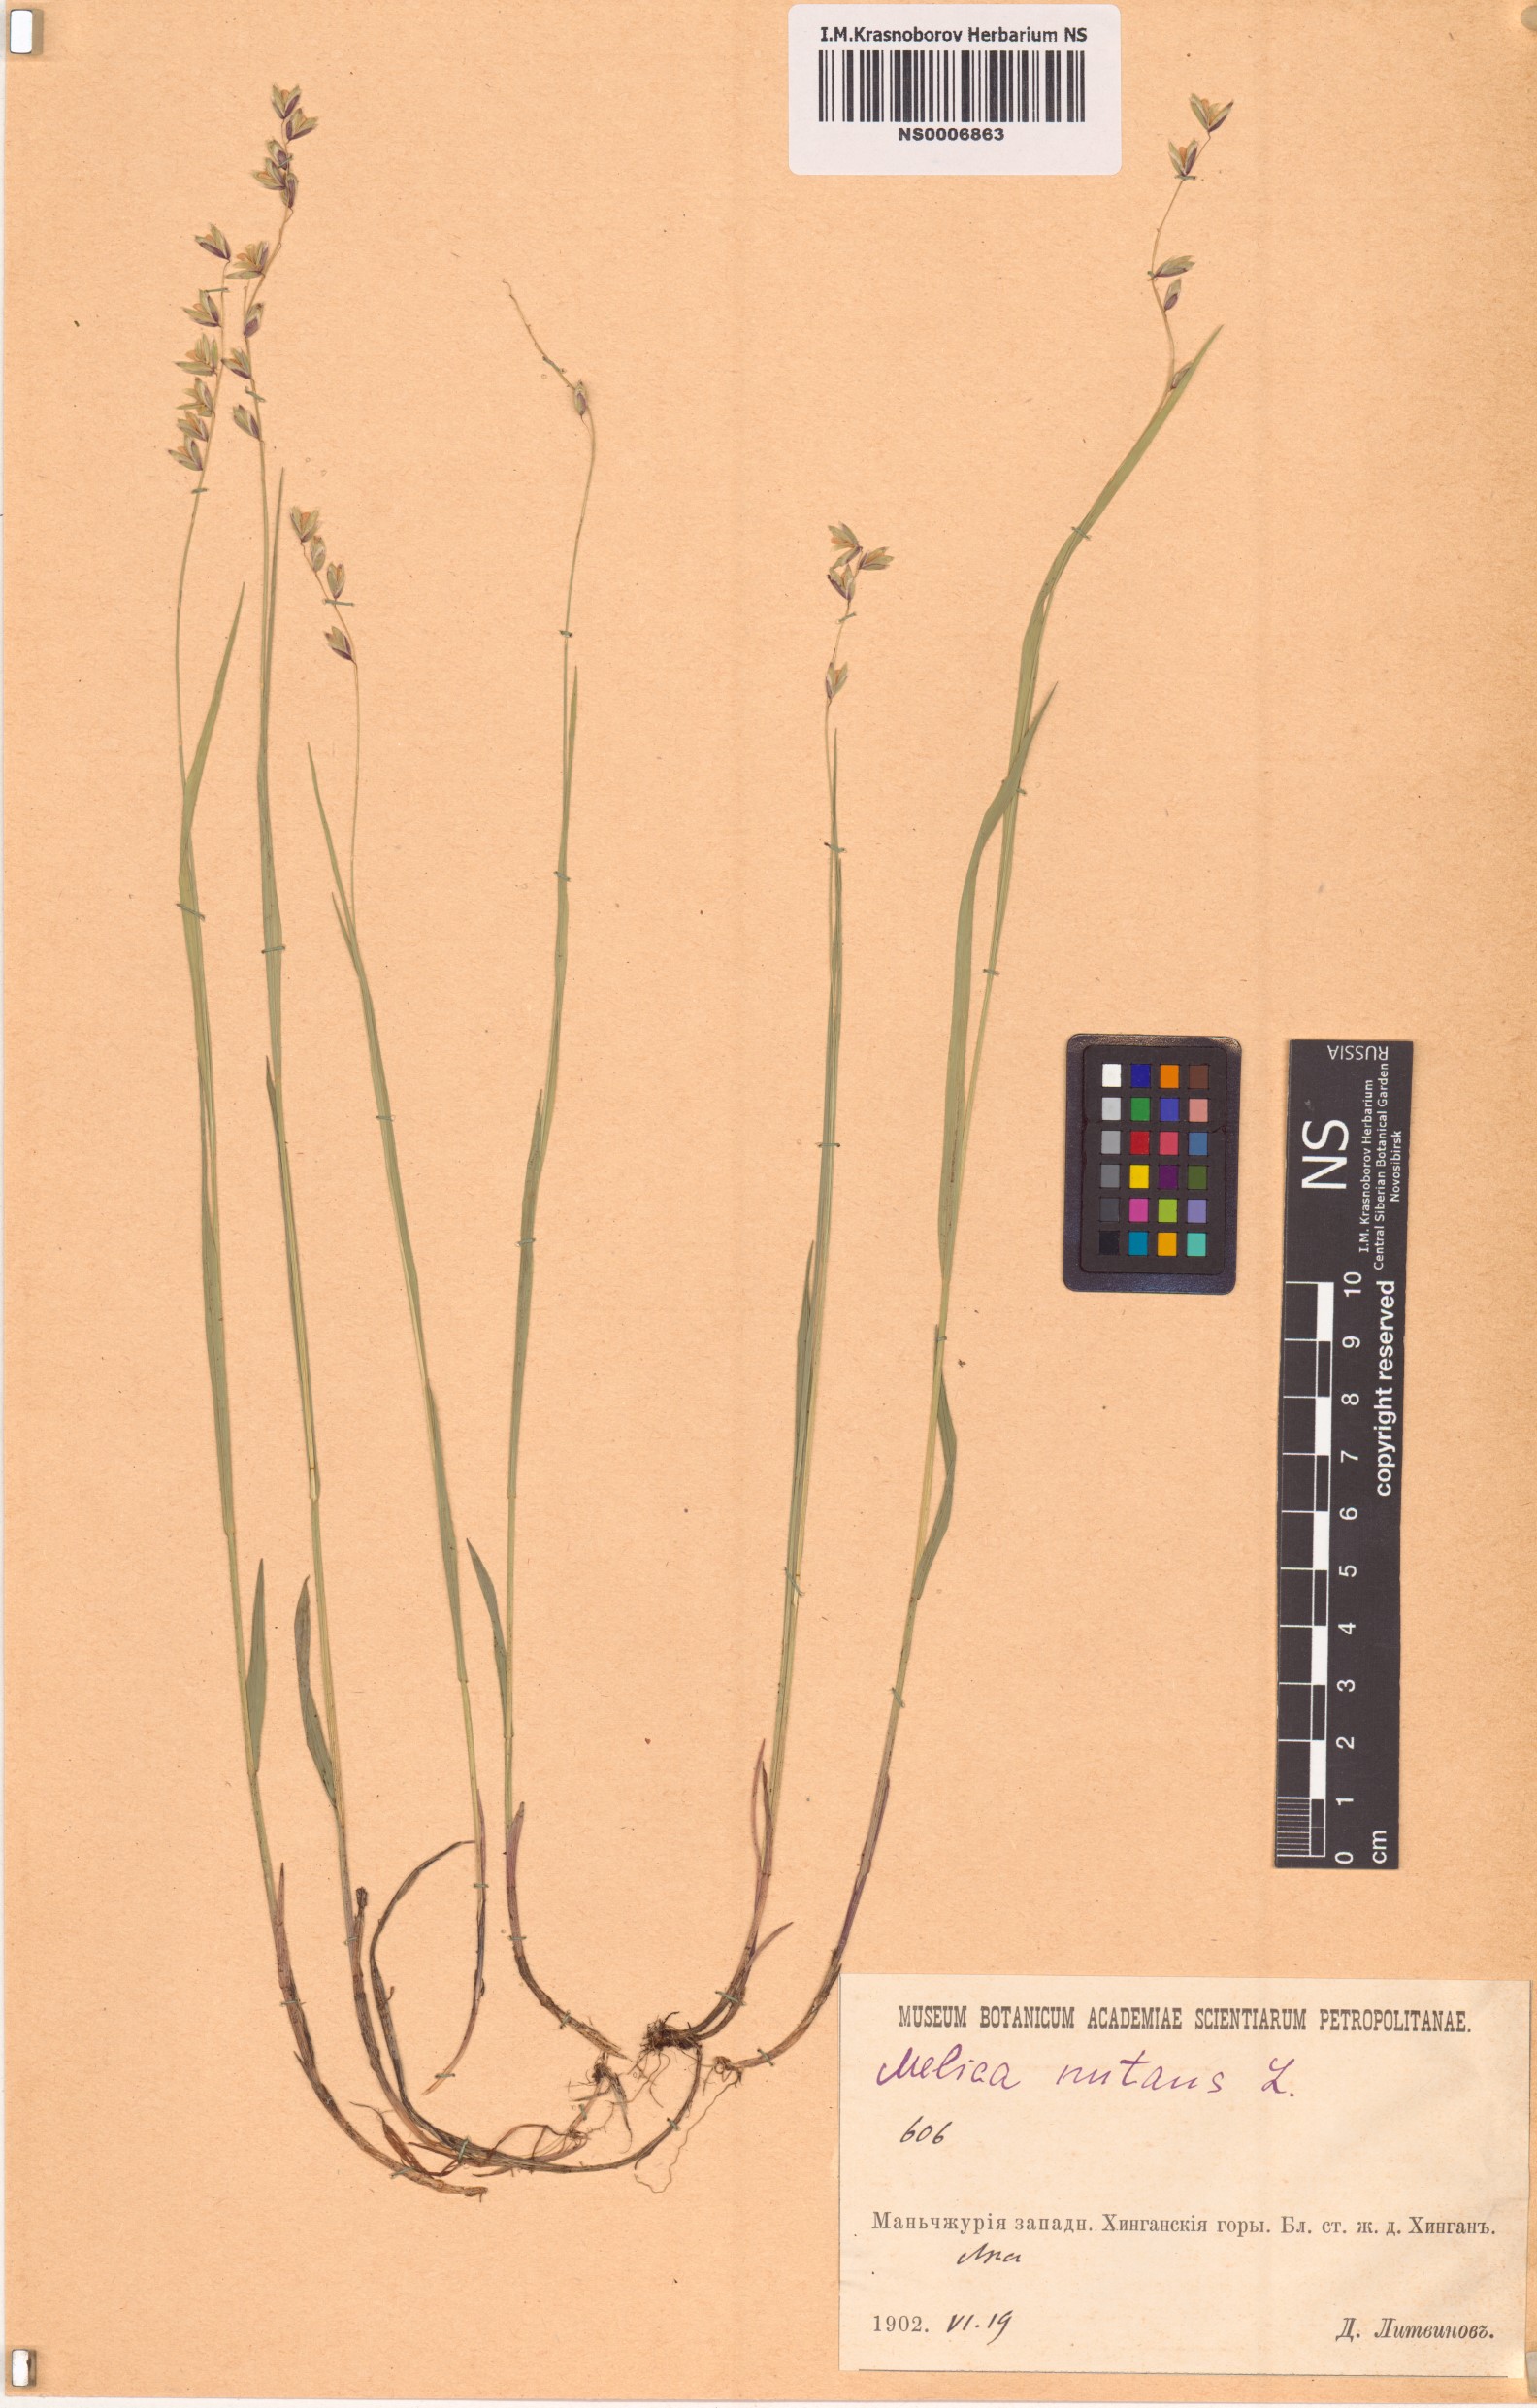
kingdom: Plantae
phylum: Tracheophyta
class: Liliopsida
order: Poales
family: Poaceae
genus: Melica
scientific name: Melica nutans
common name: Mountain melick
